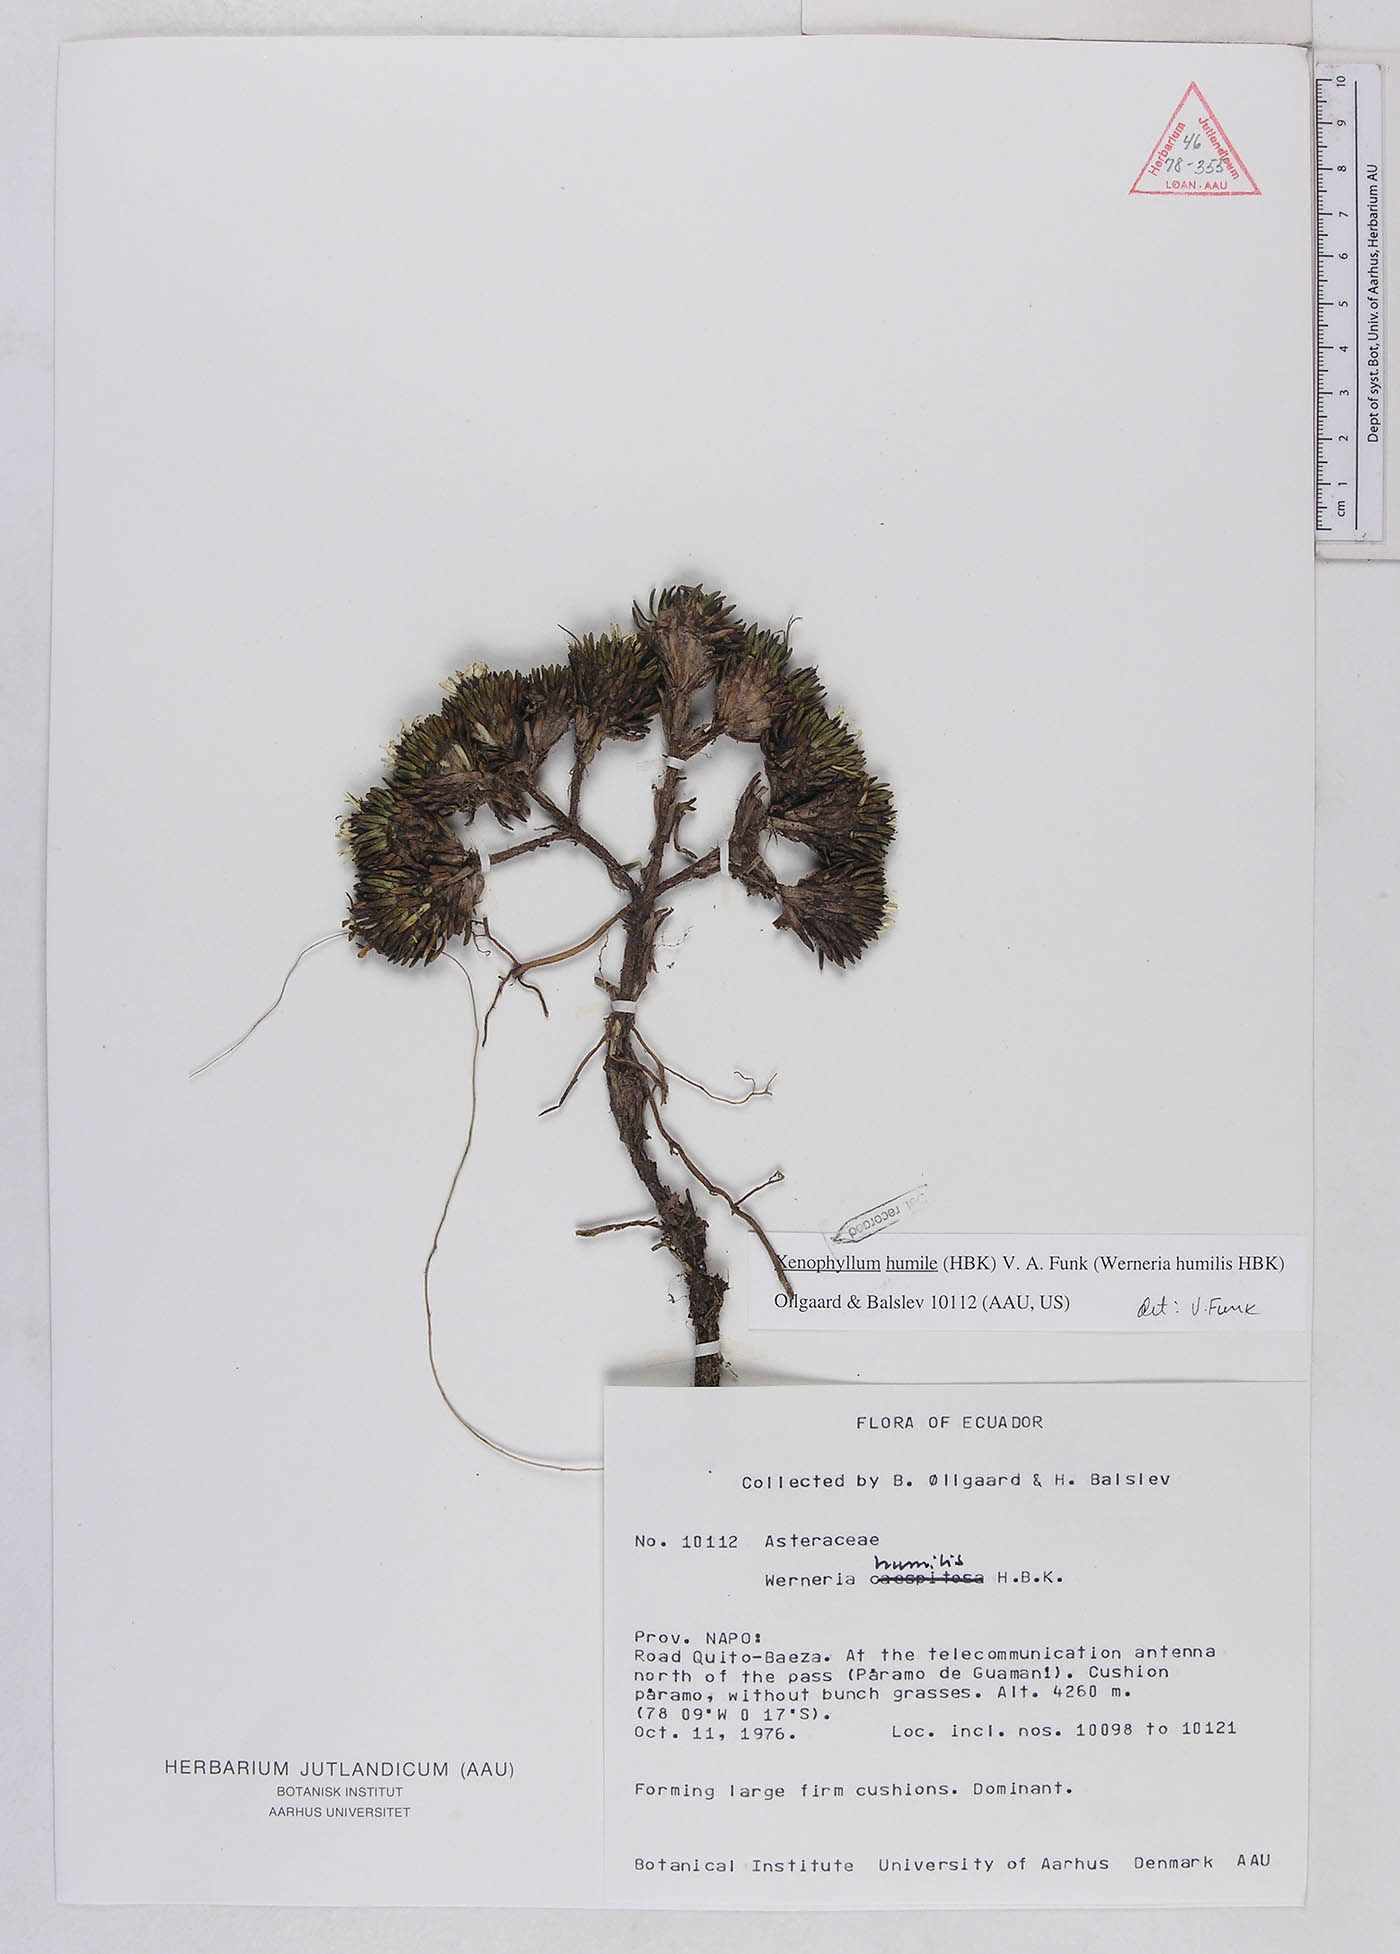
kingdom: Plantae
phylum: Tracheophyta
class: Magnoliopsida
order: Asterales
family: Asteraceae
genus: Werneria
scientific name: Werneria humilis
